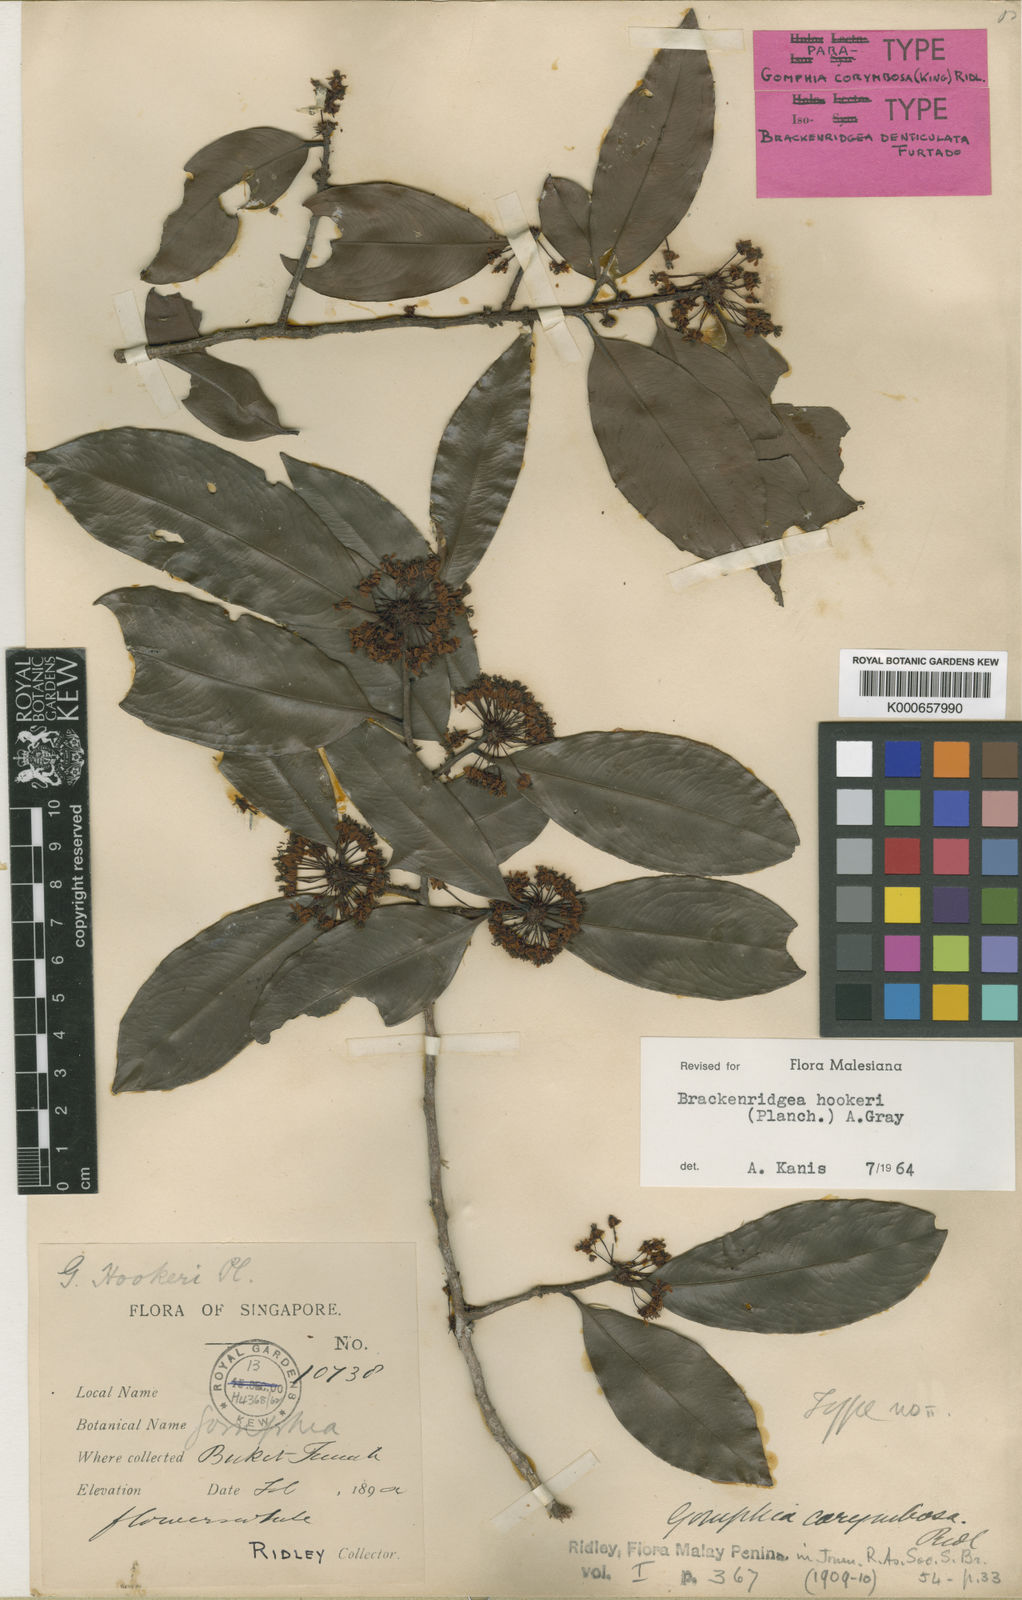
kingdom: Plantae
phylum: Tracheophyta
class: Magnoliopsida
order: Malpighiales
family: Ochnaceae
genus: Brackenridgea
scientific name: Brackenridgea elegantissima
